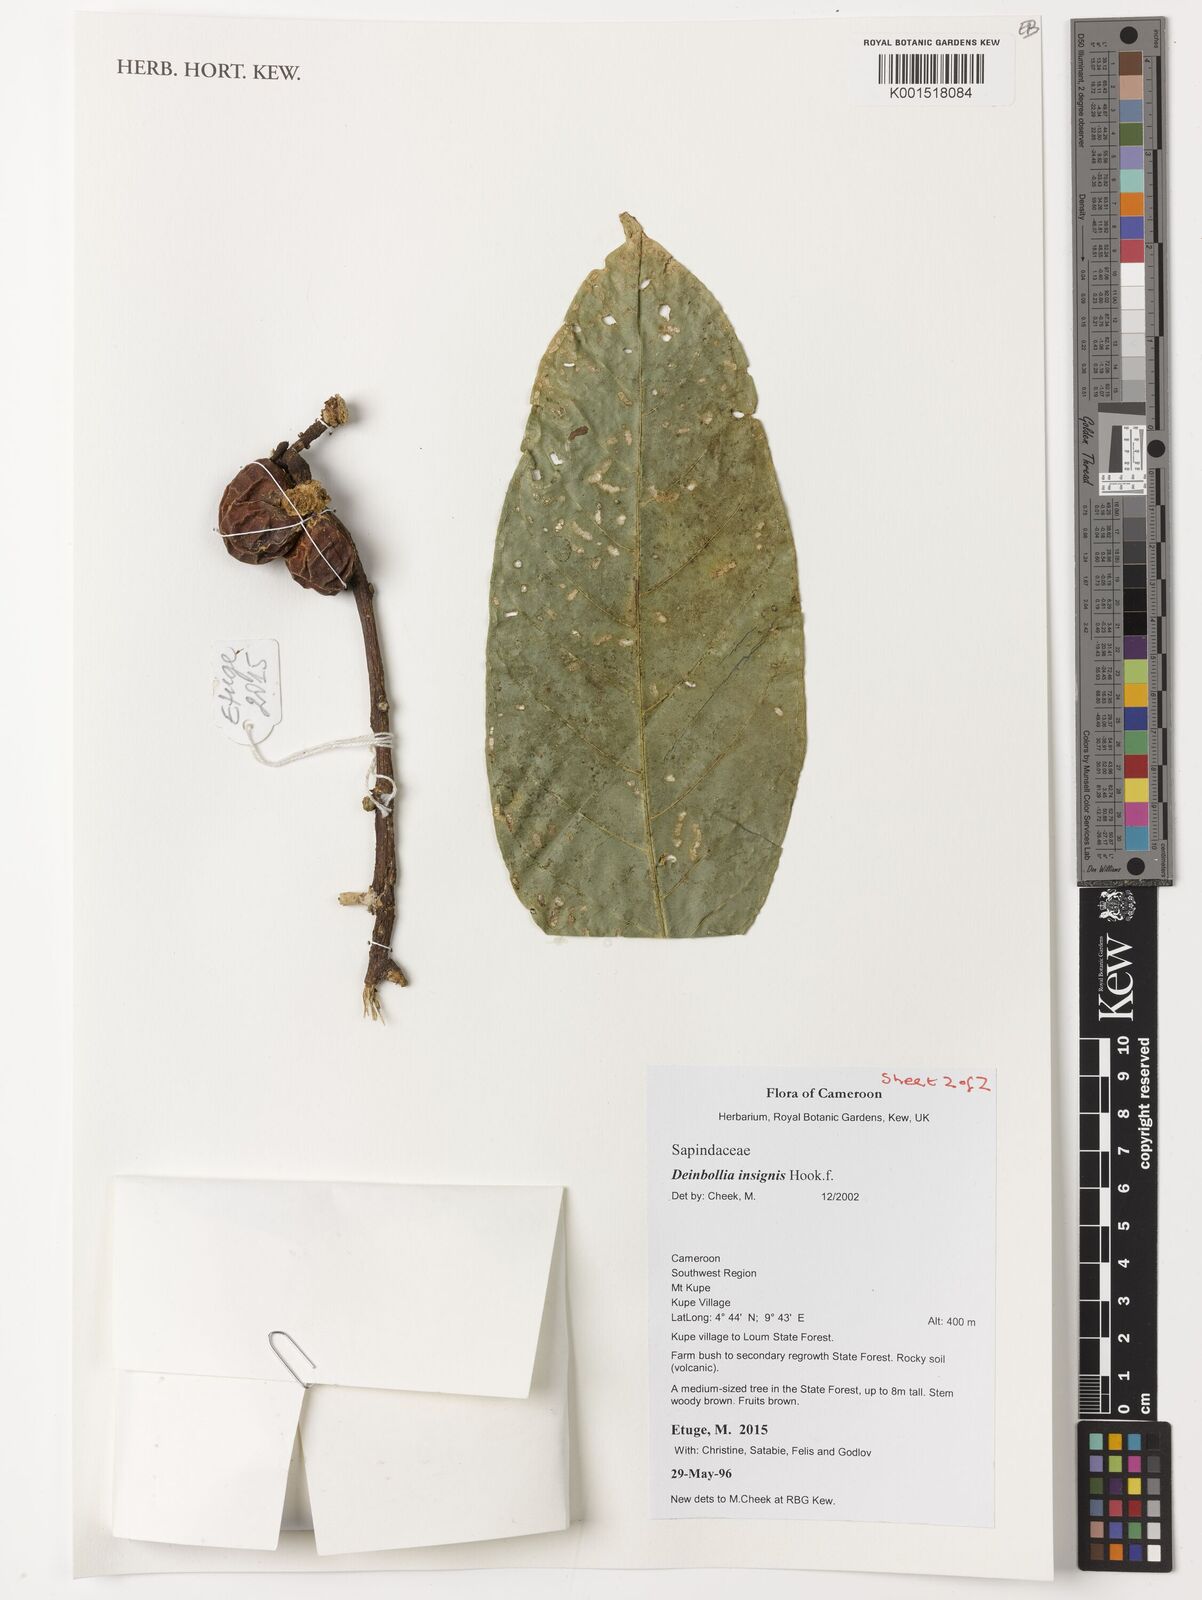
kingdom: Plantae
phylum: Tracheophyta
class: Magnoliopsida
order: Sapindales
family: Sapindaceae
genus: Deinbollia
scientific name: Deinbollia insignis
